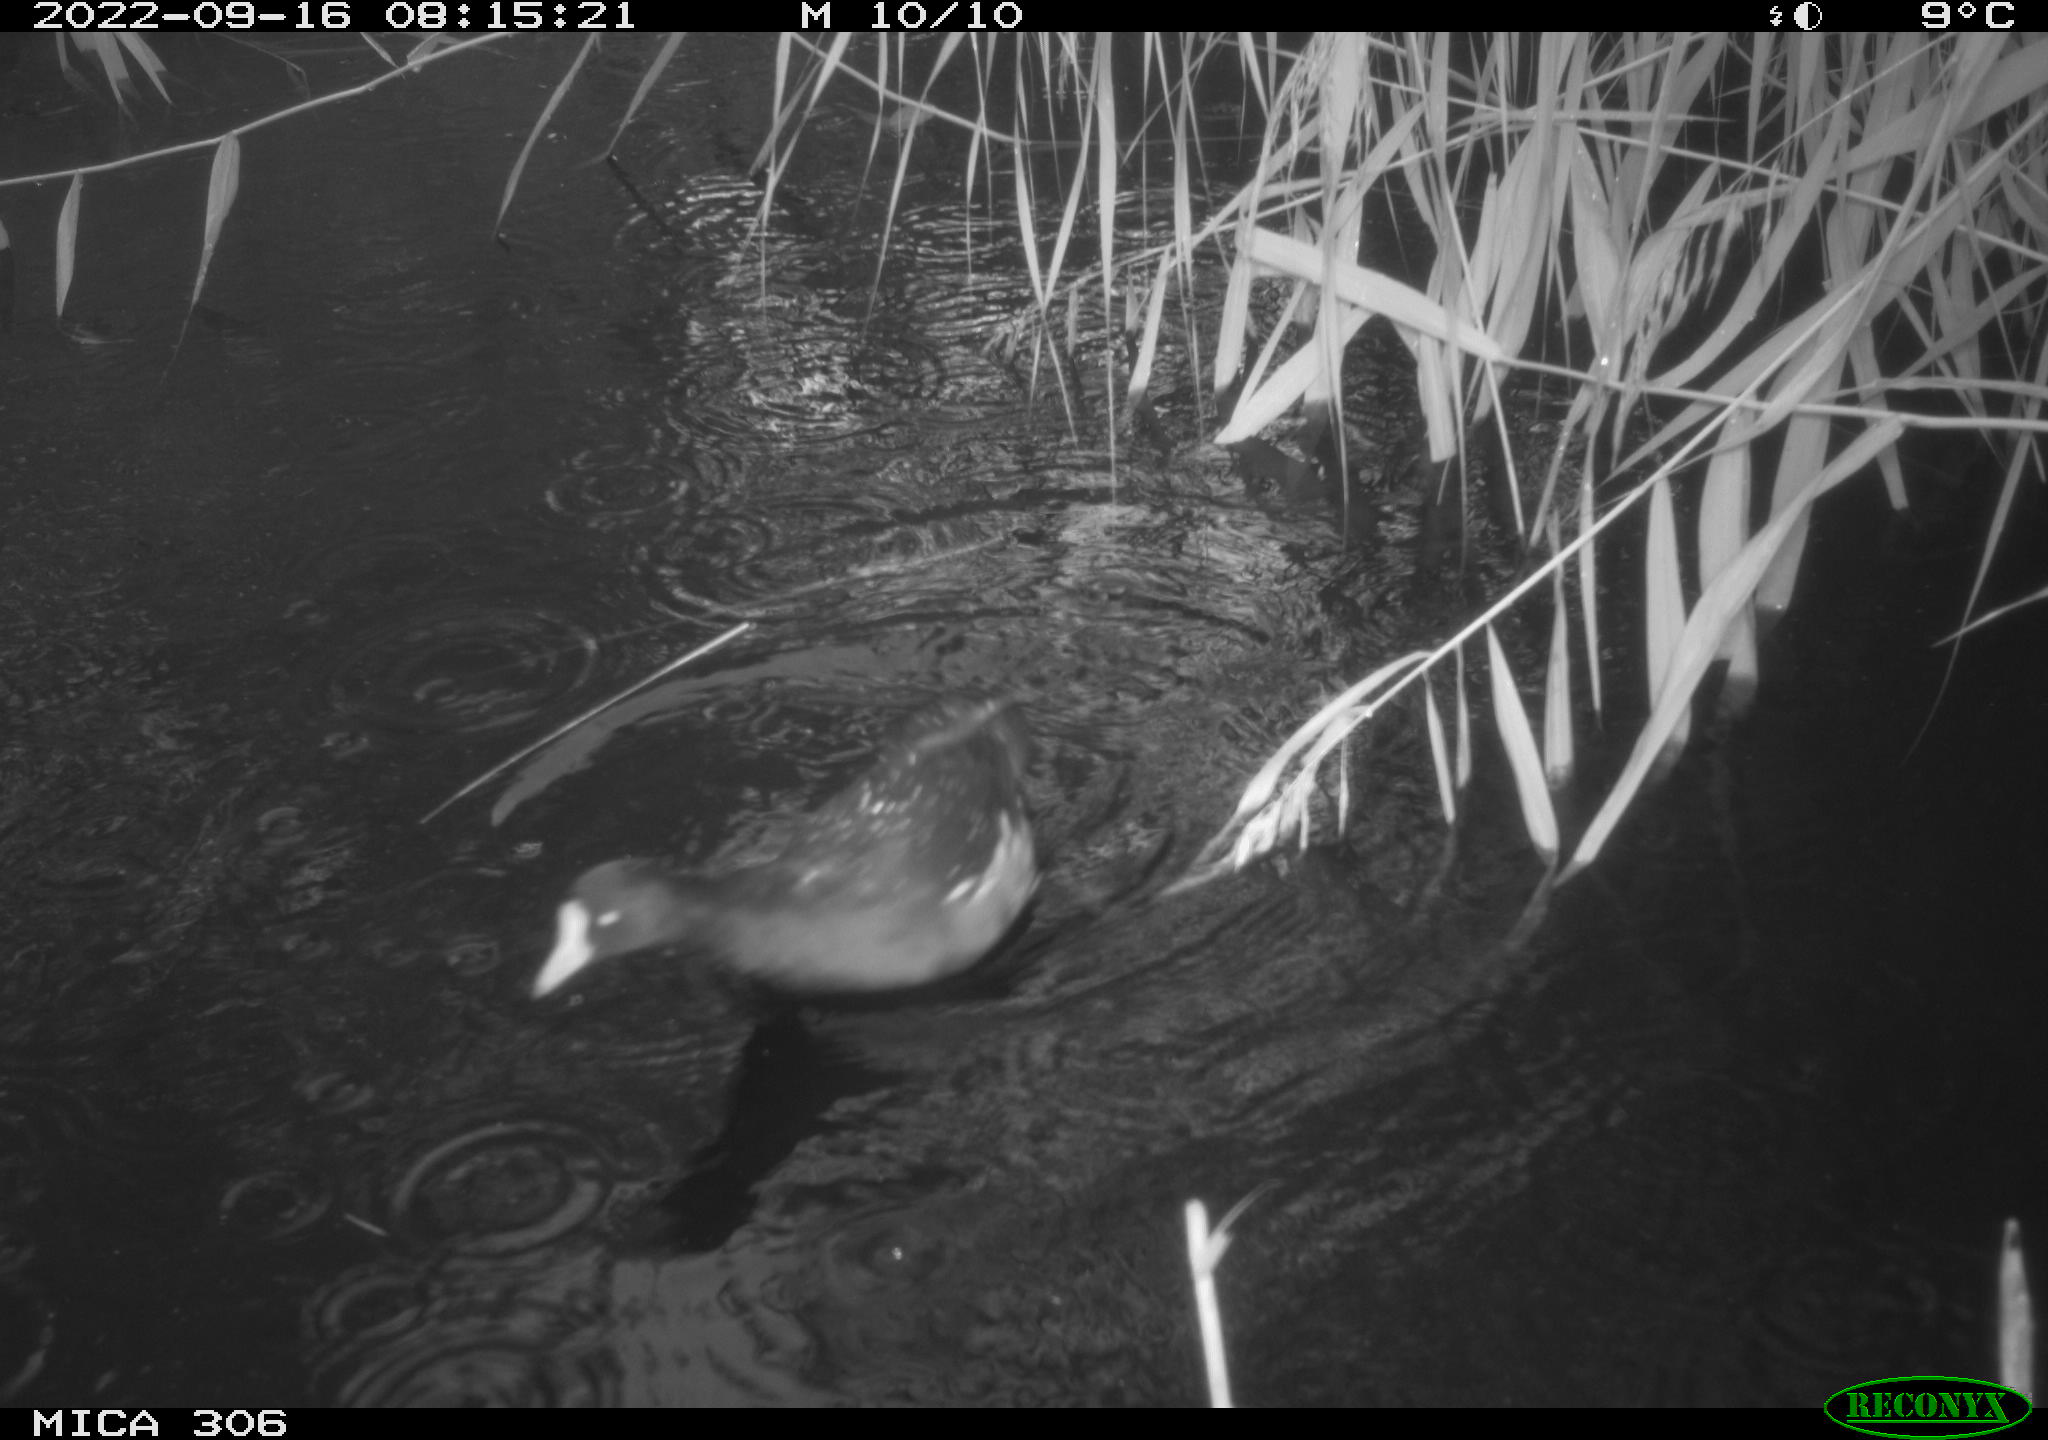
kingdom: Animalia
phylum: Chordata
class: Aves
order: Gruiformes
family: Rallidae
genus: Gallinula
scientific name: Gallinula chloropus
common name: Common moorhen
